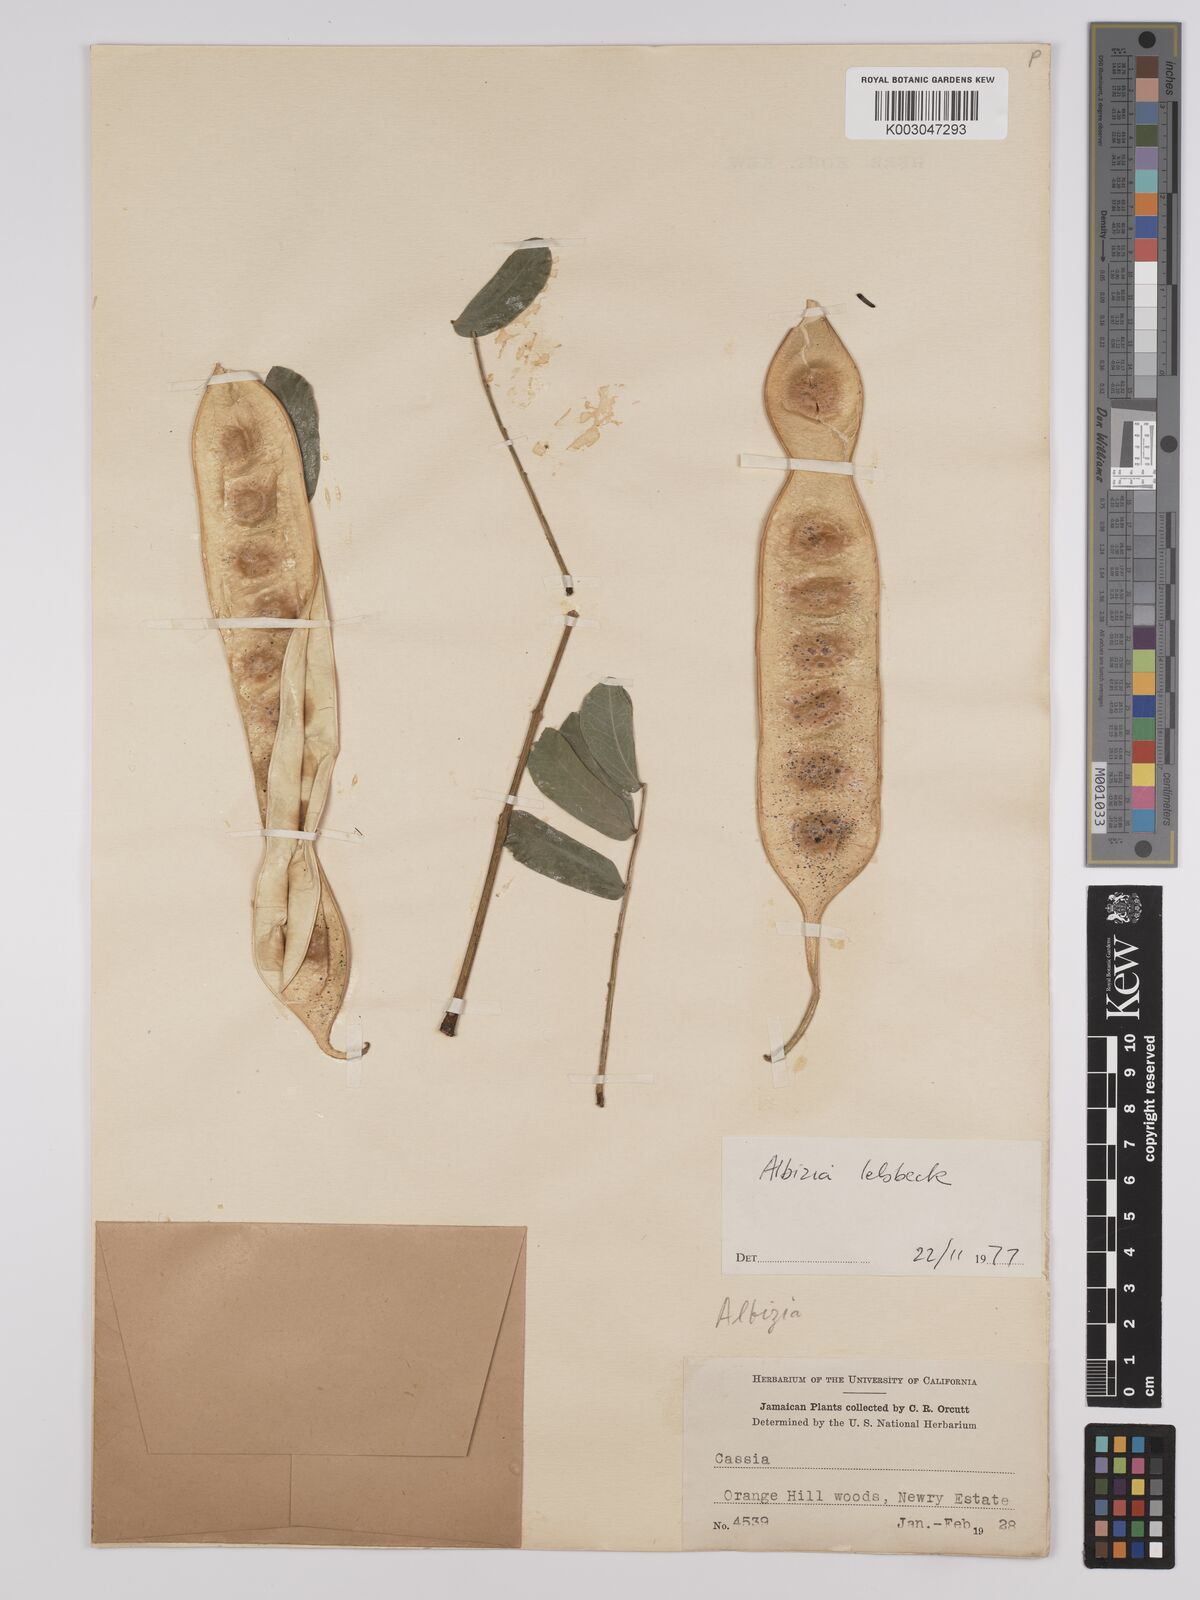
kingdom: Plantae
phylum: Tracheophyta
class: Magnoliopsida
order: Fabales
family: Fabaceae
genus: Albizia
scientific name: Albizia lebbeck
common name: Woman's tongue
